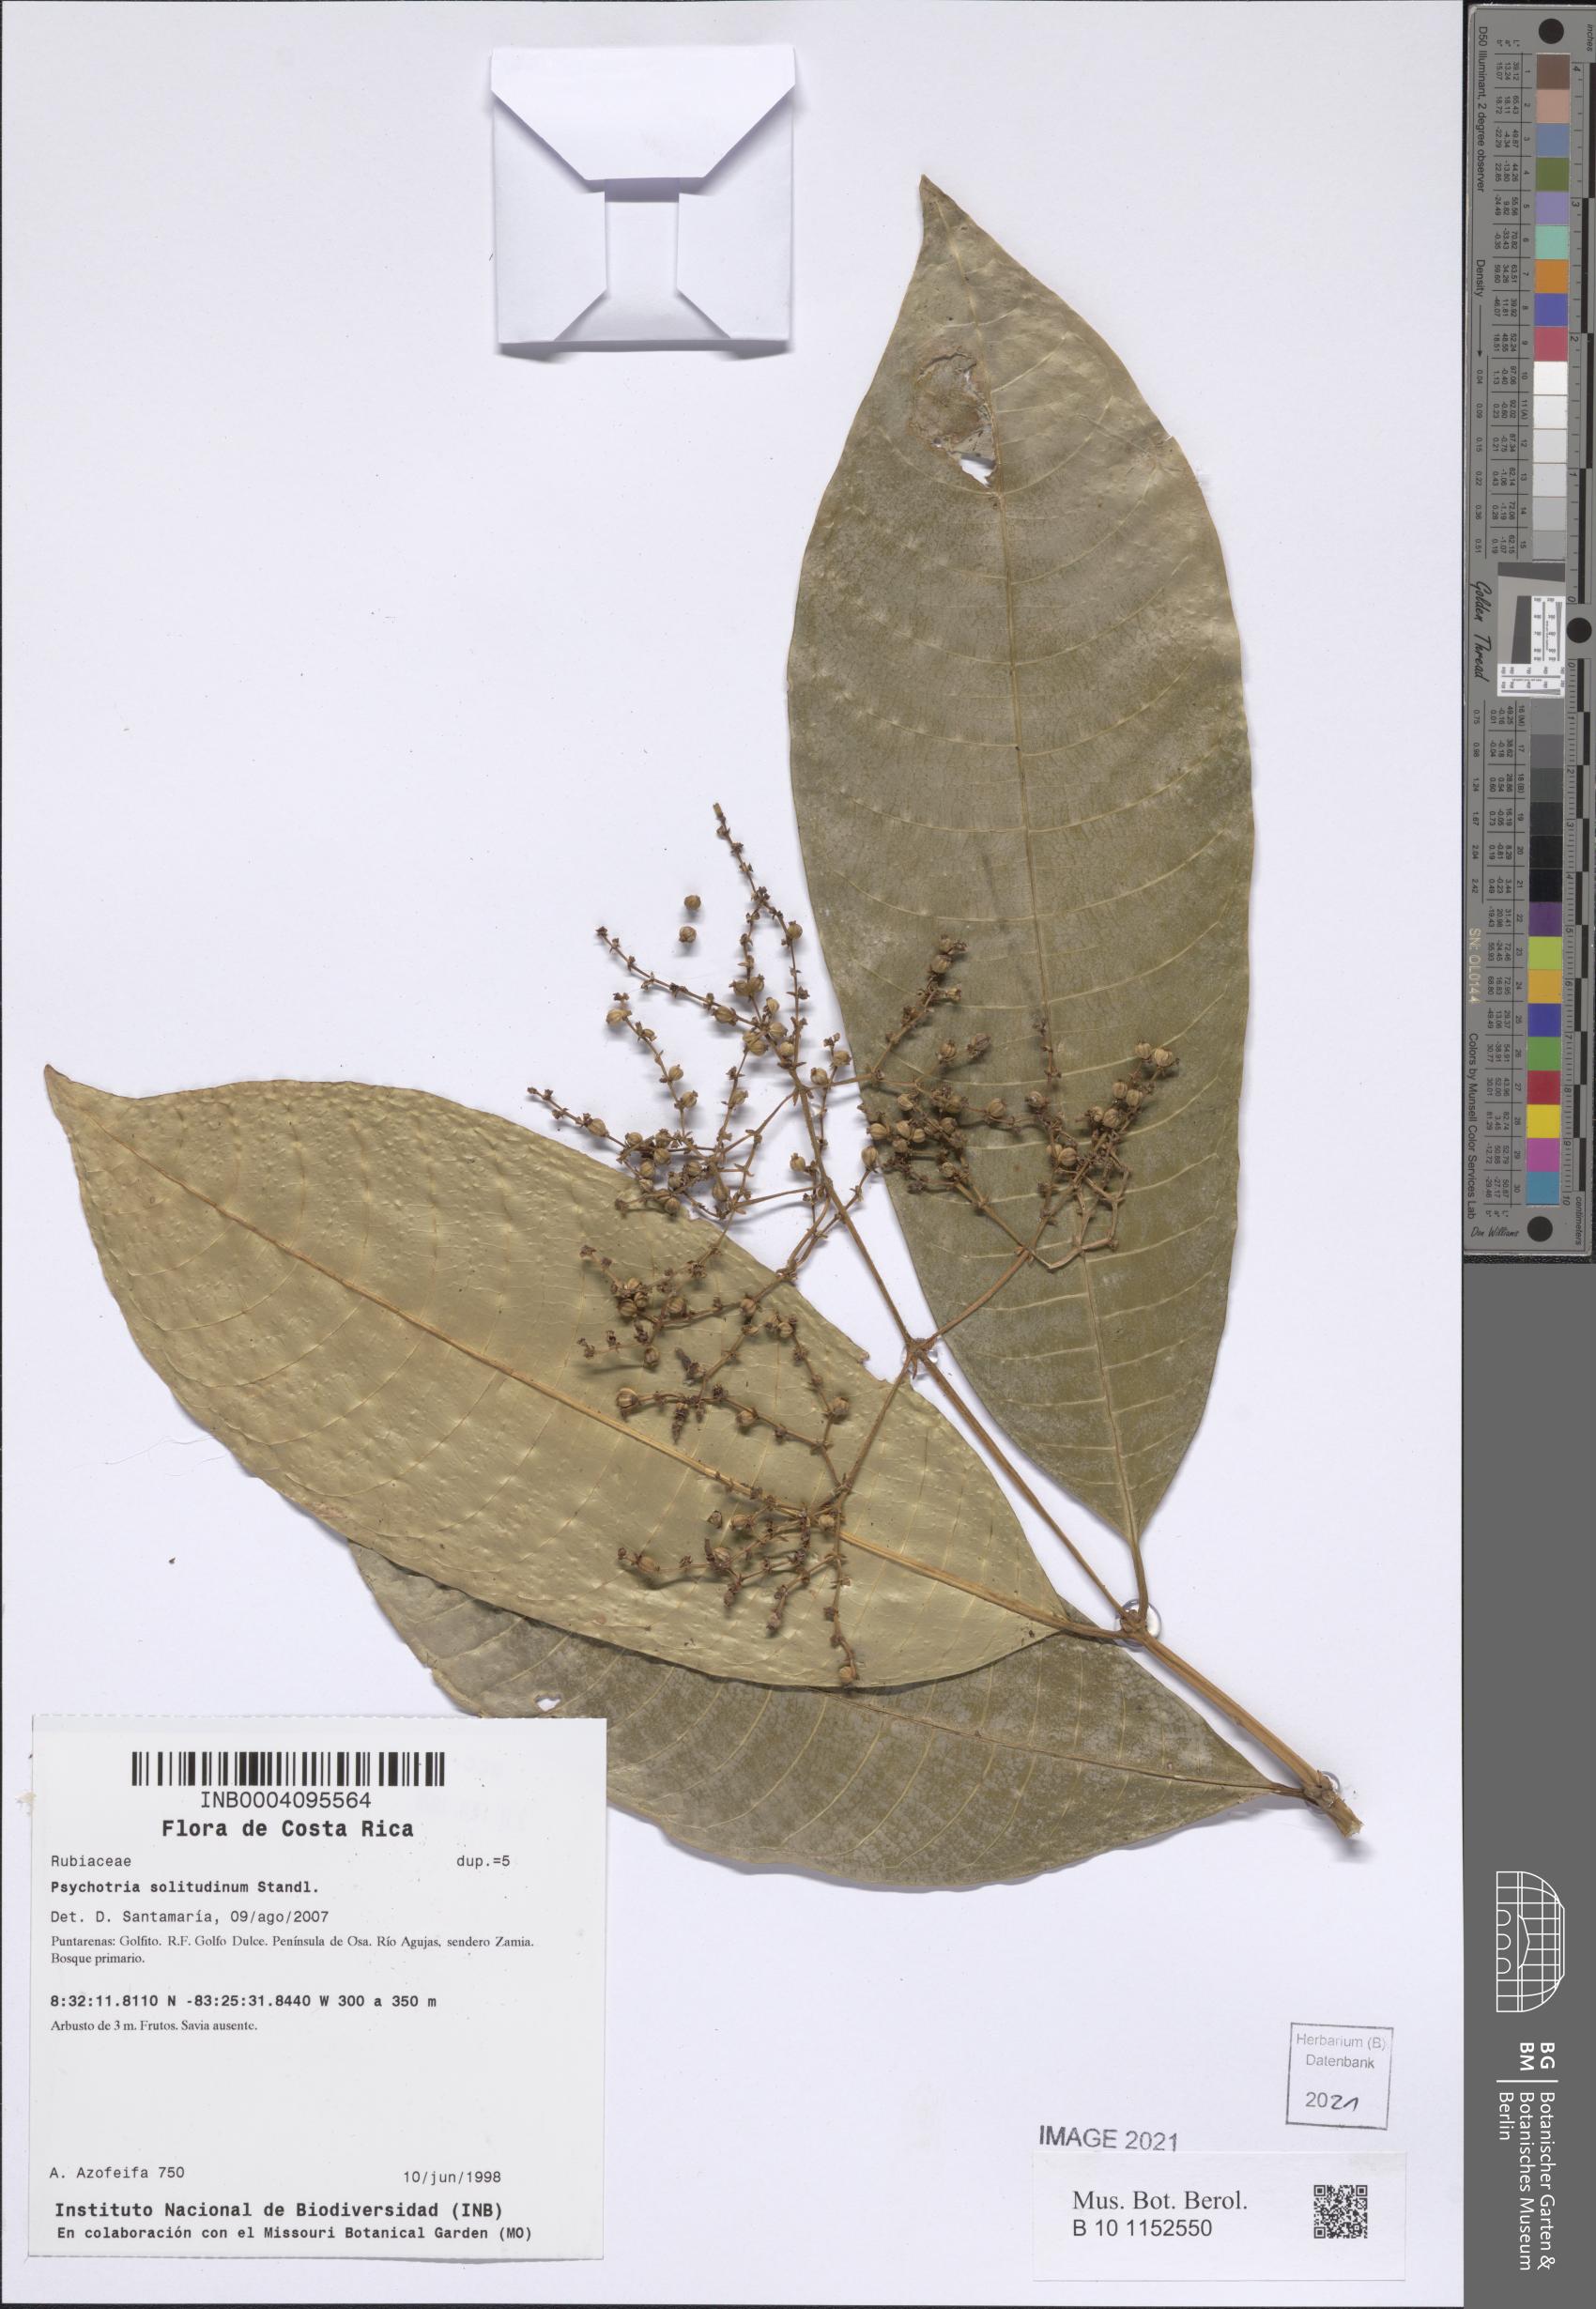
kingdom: Plantae
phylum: Tracheophyta
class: Magnoliopsida
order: Gentianales
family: Rubiaceae
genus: Palicourea
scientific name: Palicourea solitudinum
